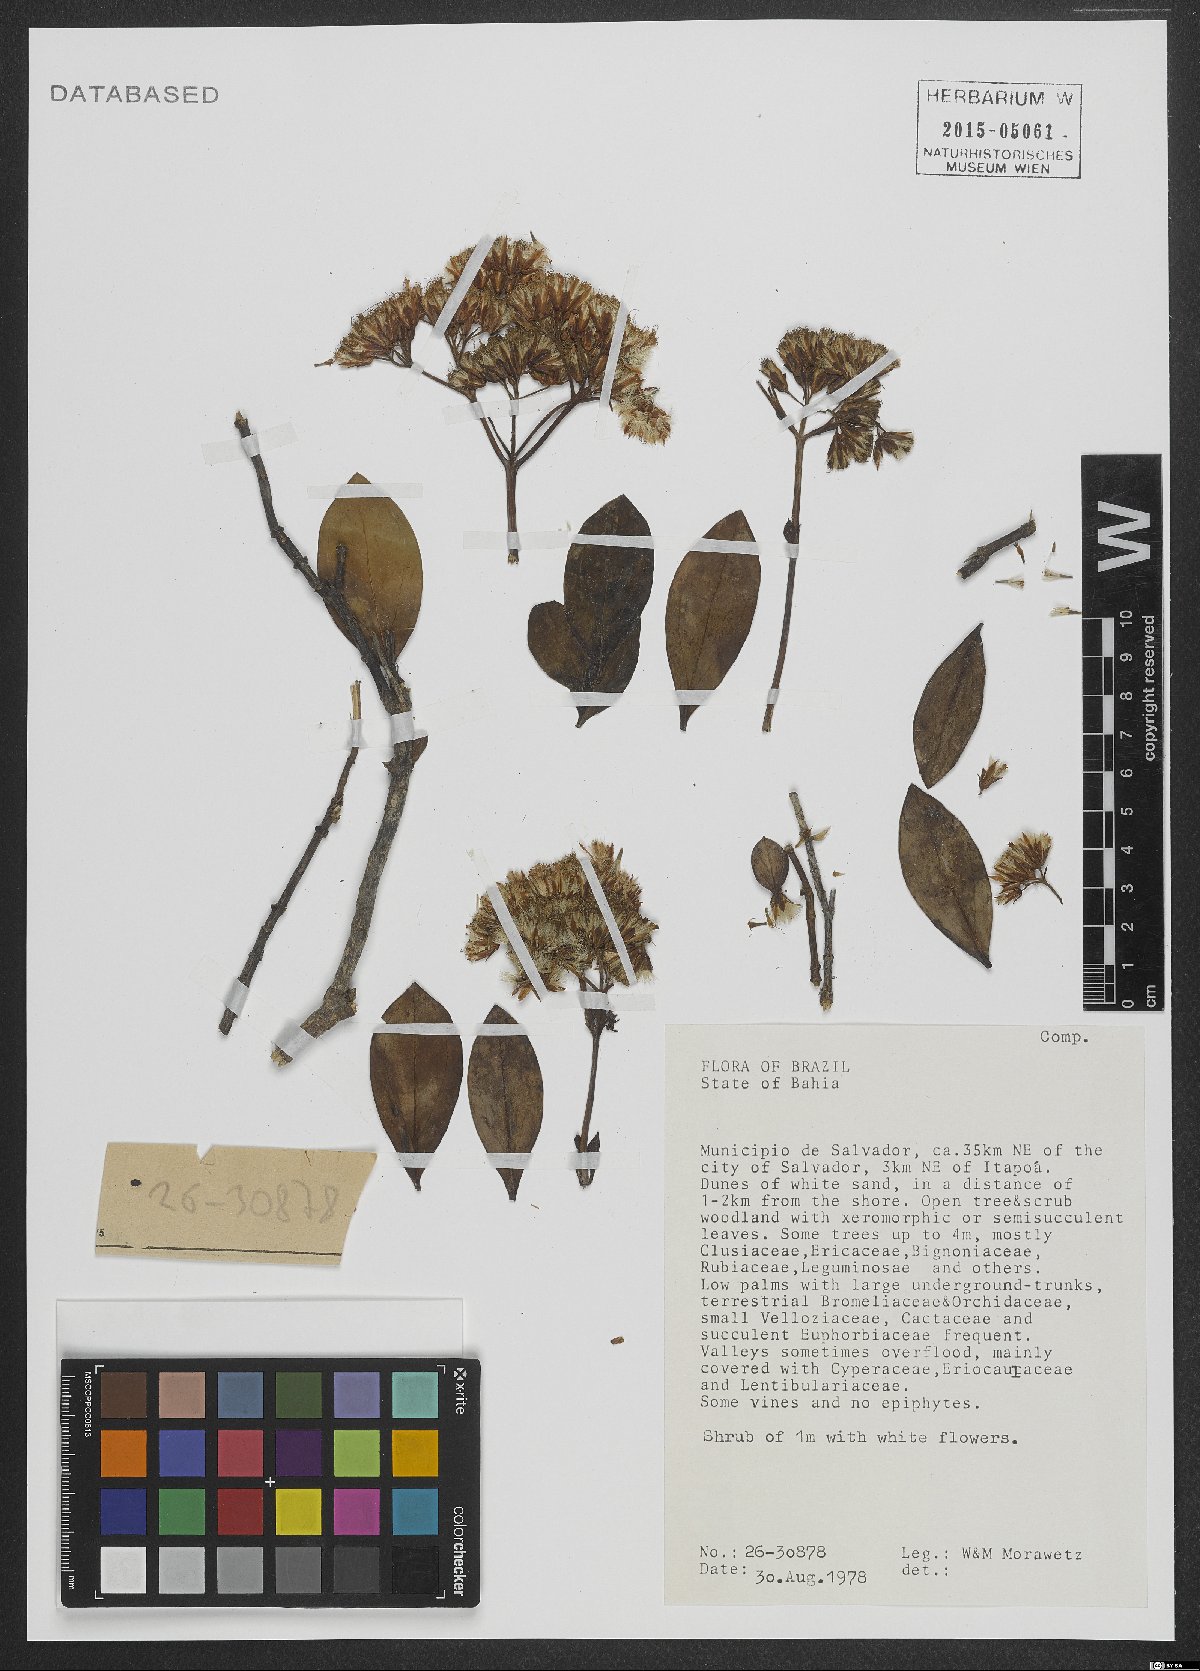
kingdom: Plantae
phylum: Tracheophyta
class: Magnoliopsida
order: Asterales
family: Asteraceae
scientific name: Asteraceae
